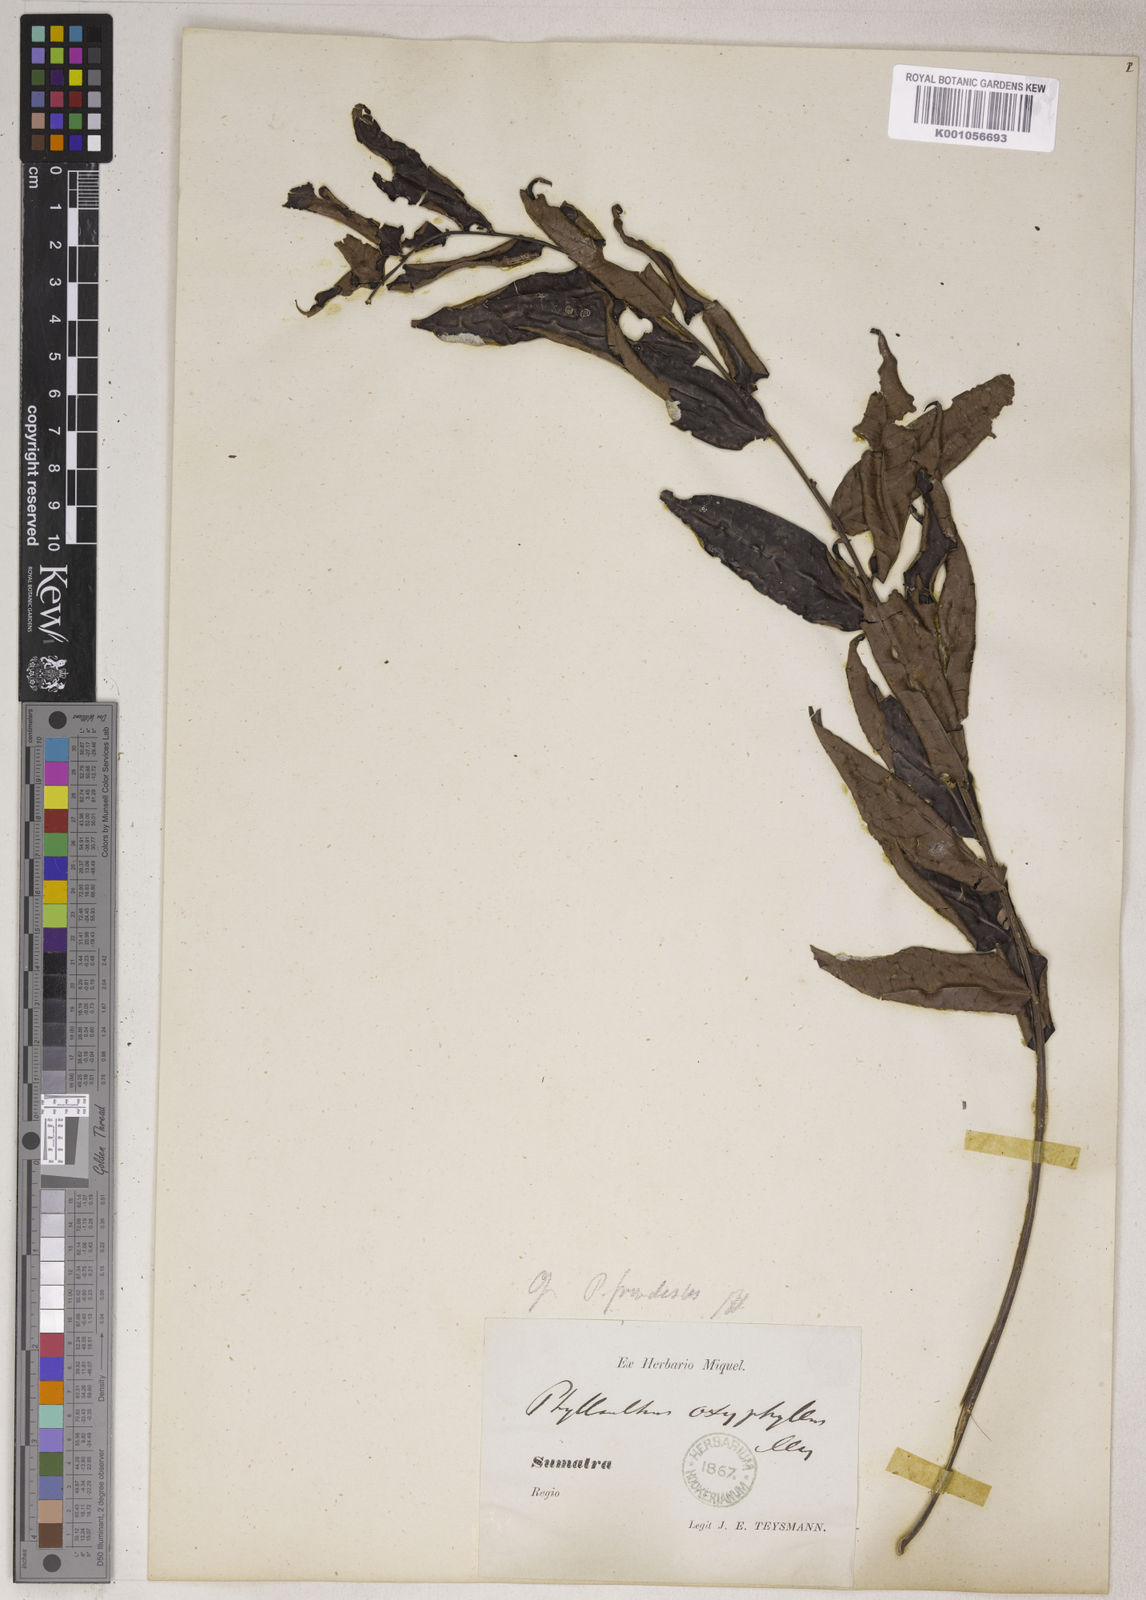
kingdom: Plantae
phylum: Tracheophyta
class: Magnoliopsida
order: Malpighiales
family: Phyllanthaceae
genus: Phyllanthus
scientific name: Phyllanthus oxyphyllus
